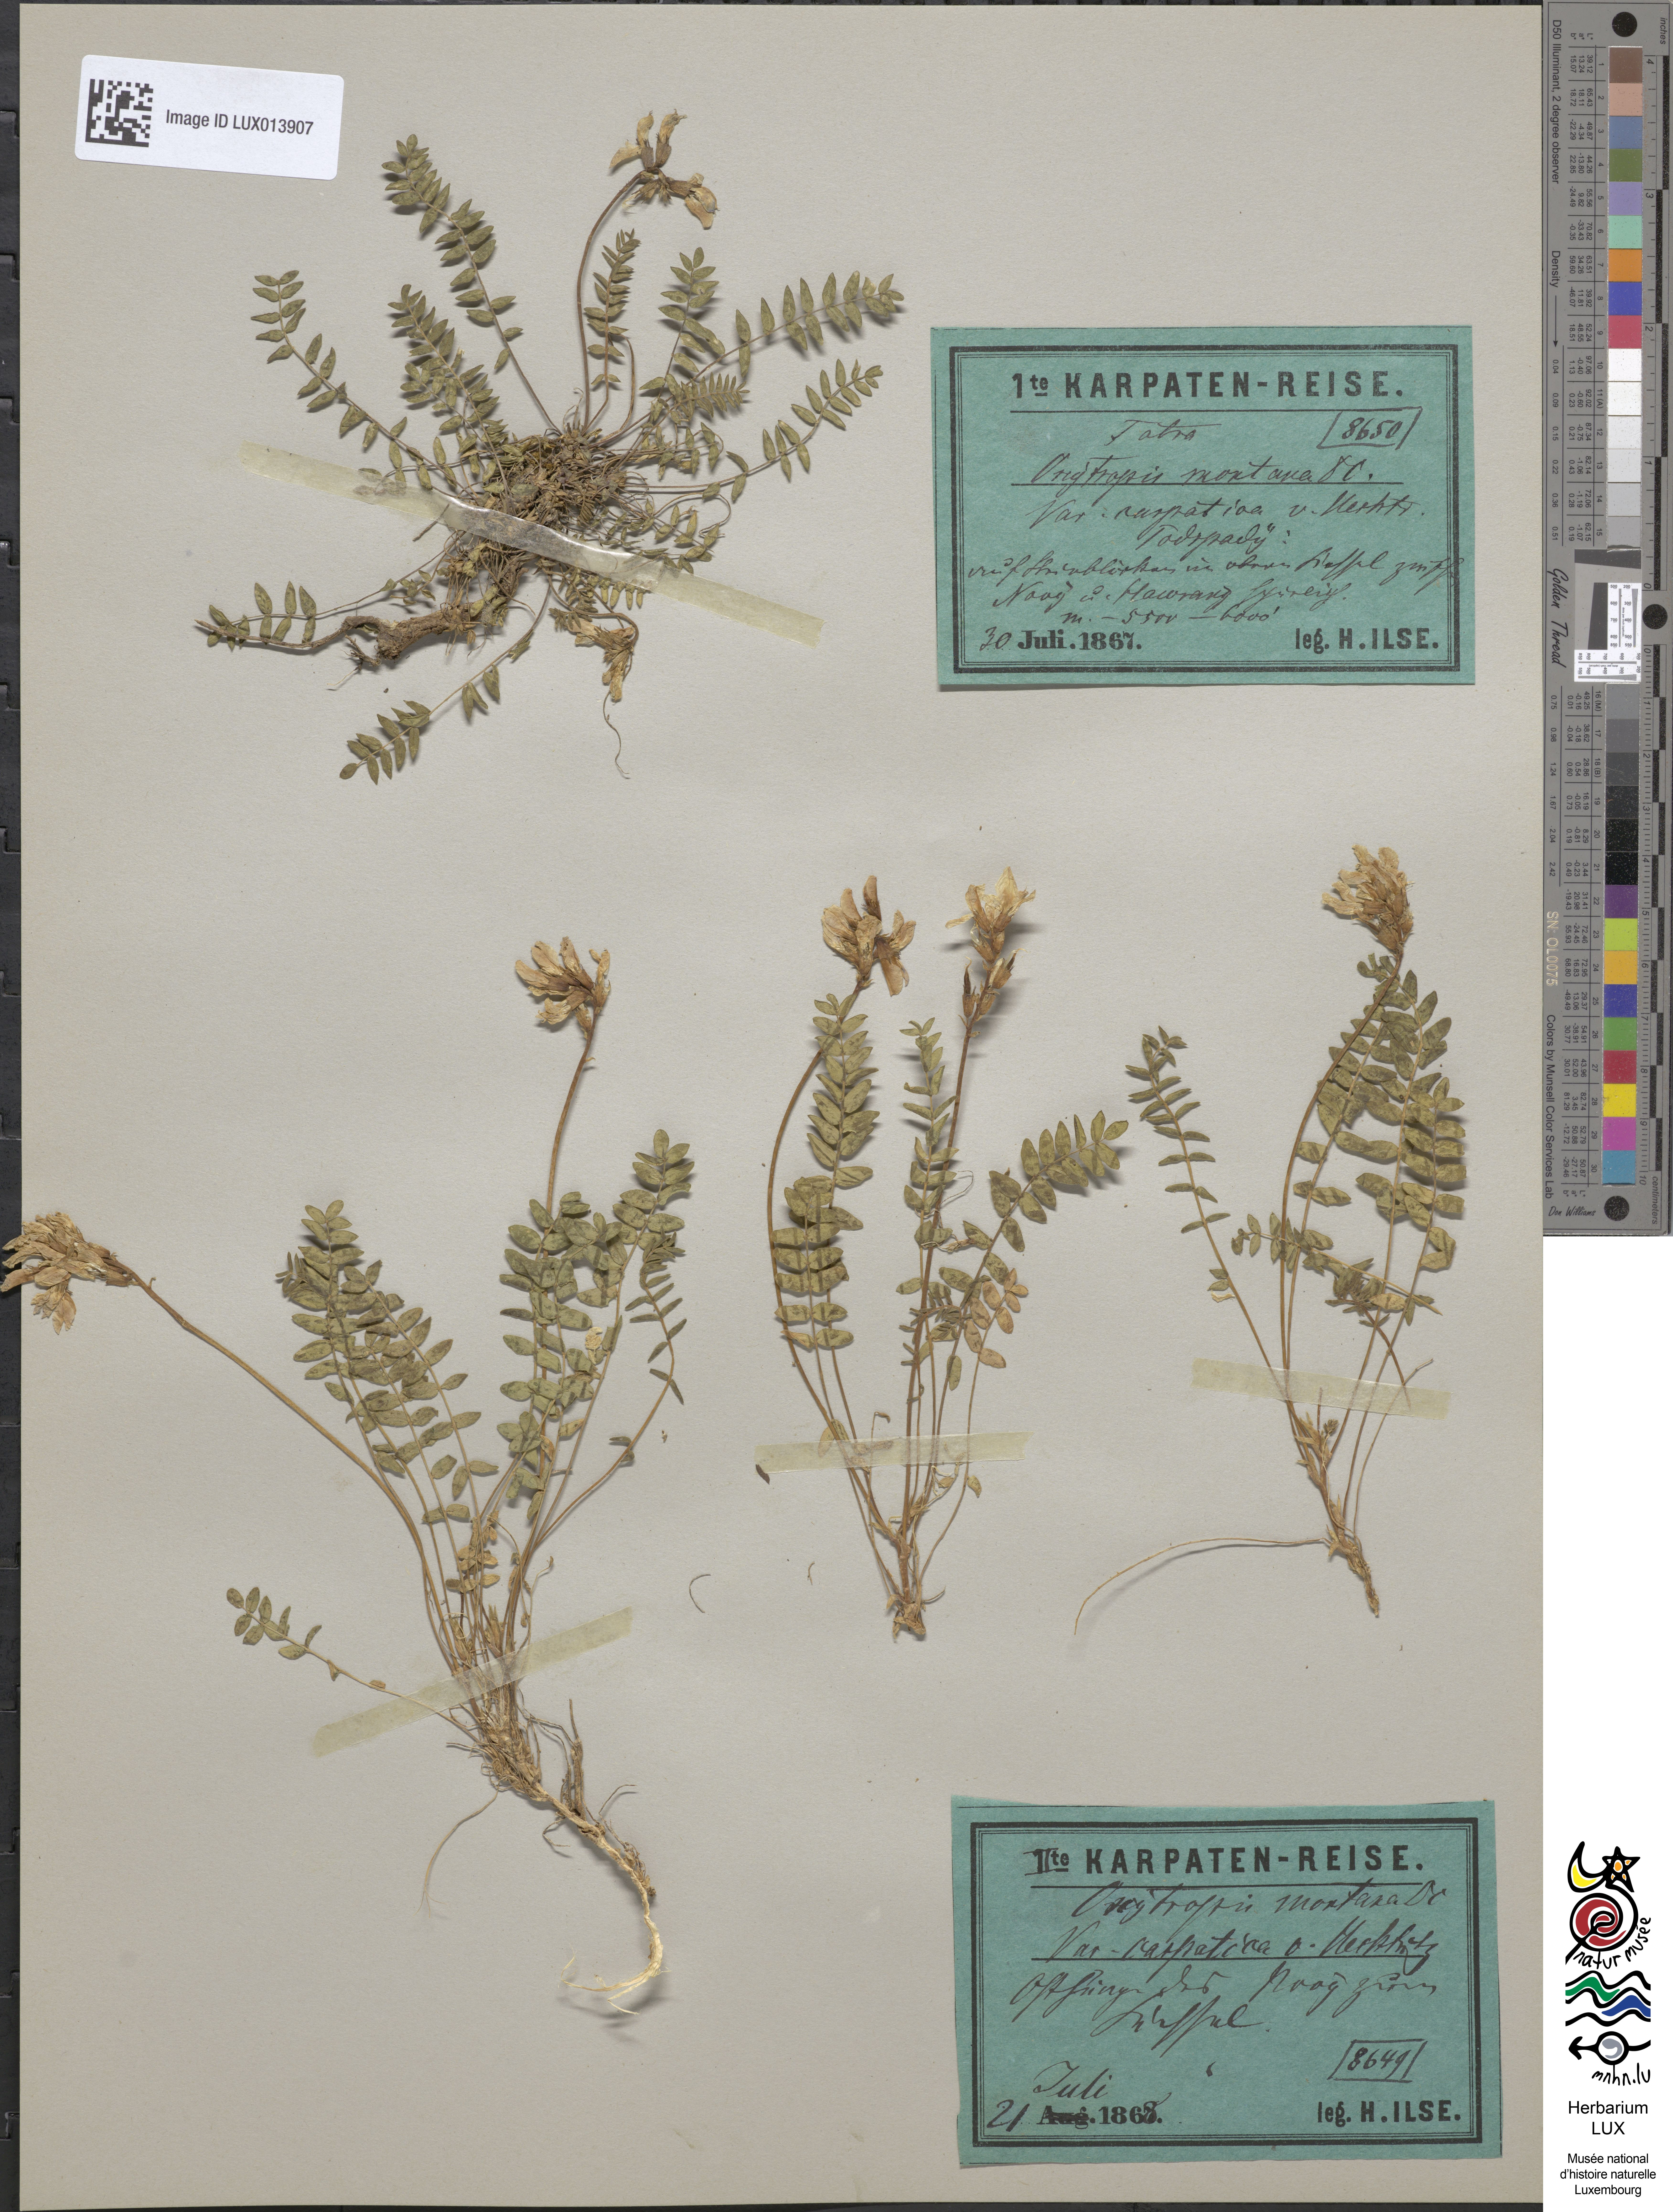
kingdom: Plantae
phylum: Tracheophyta
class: Magnoliopsida
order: Fabales
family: Fabaceae
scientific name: Fabaceae
